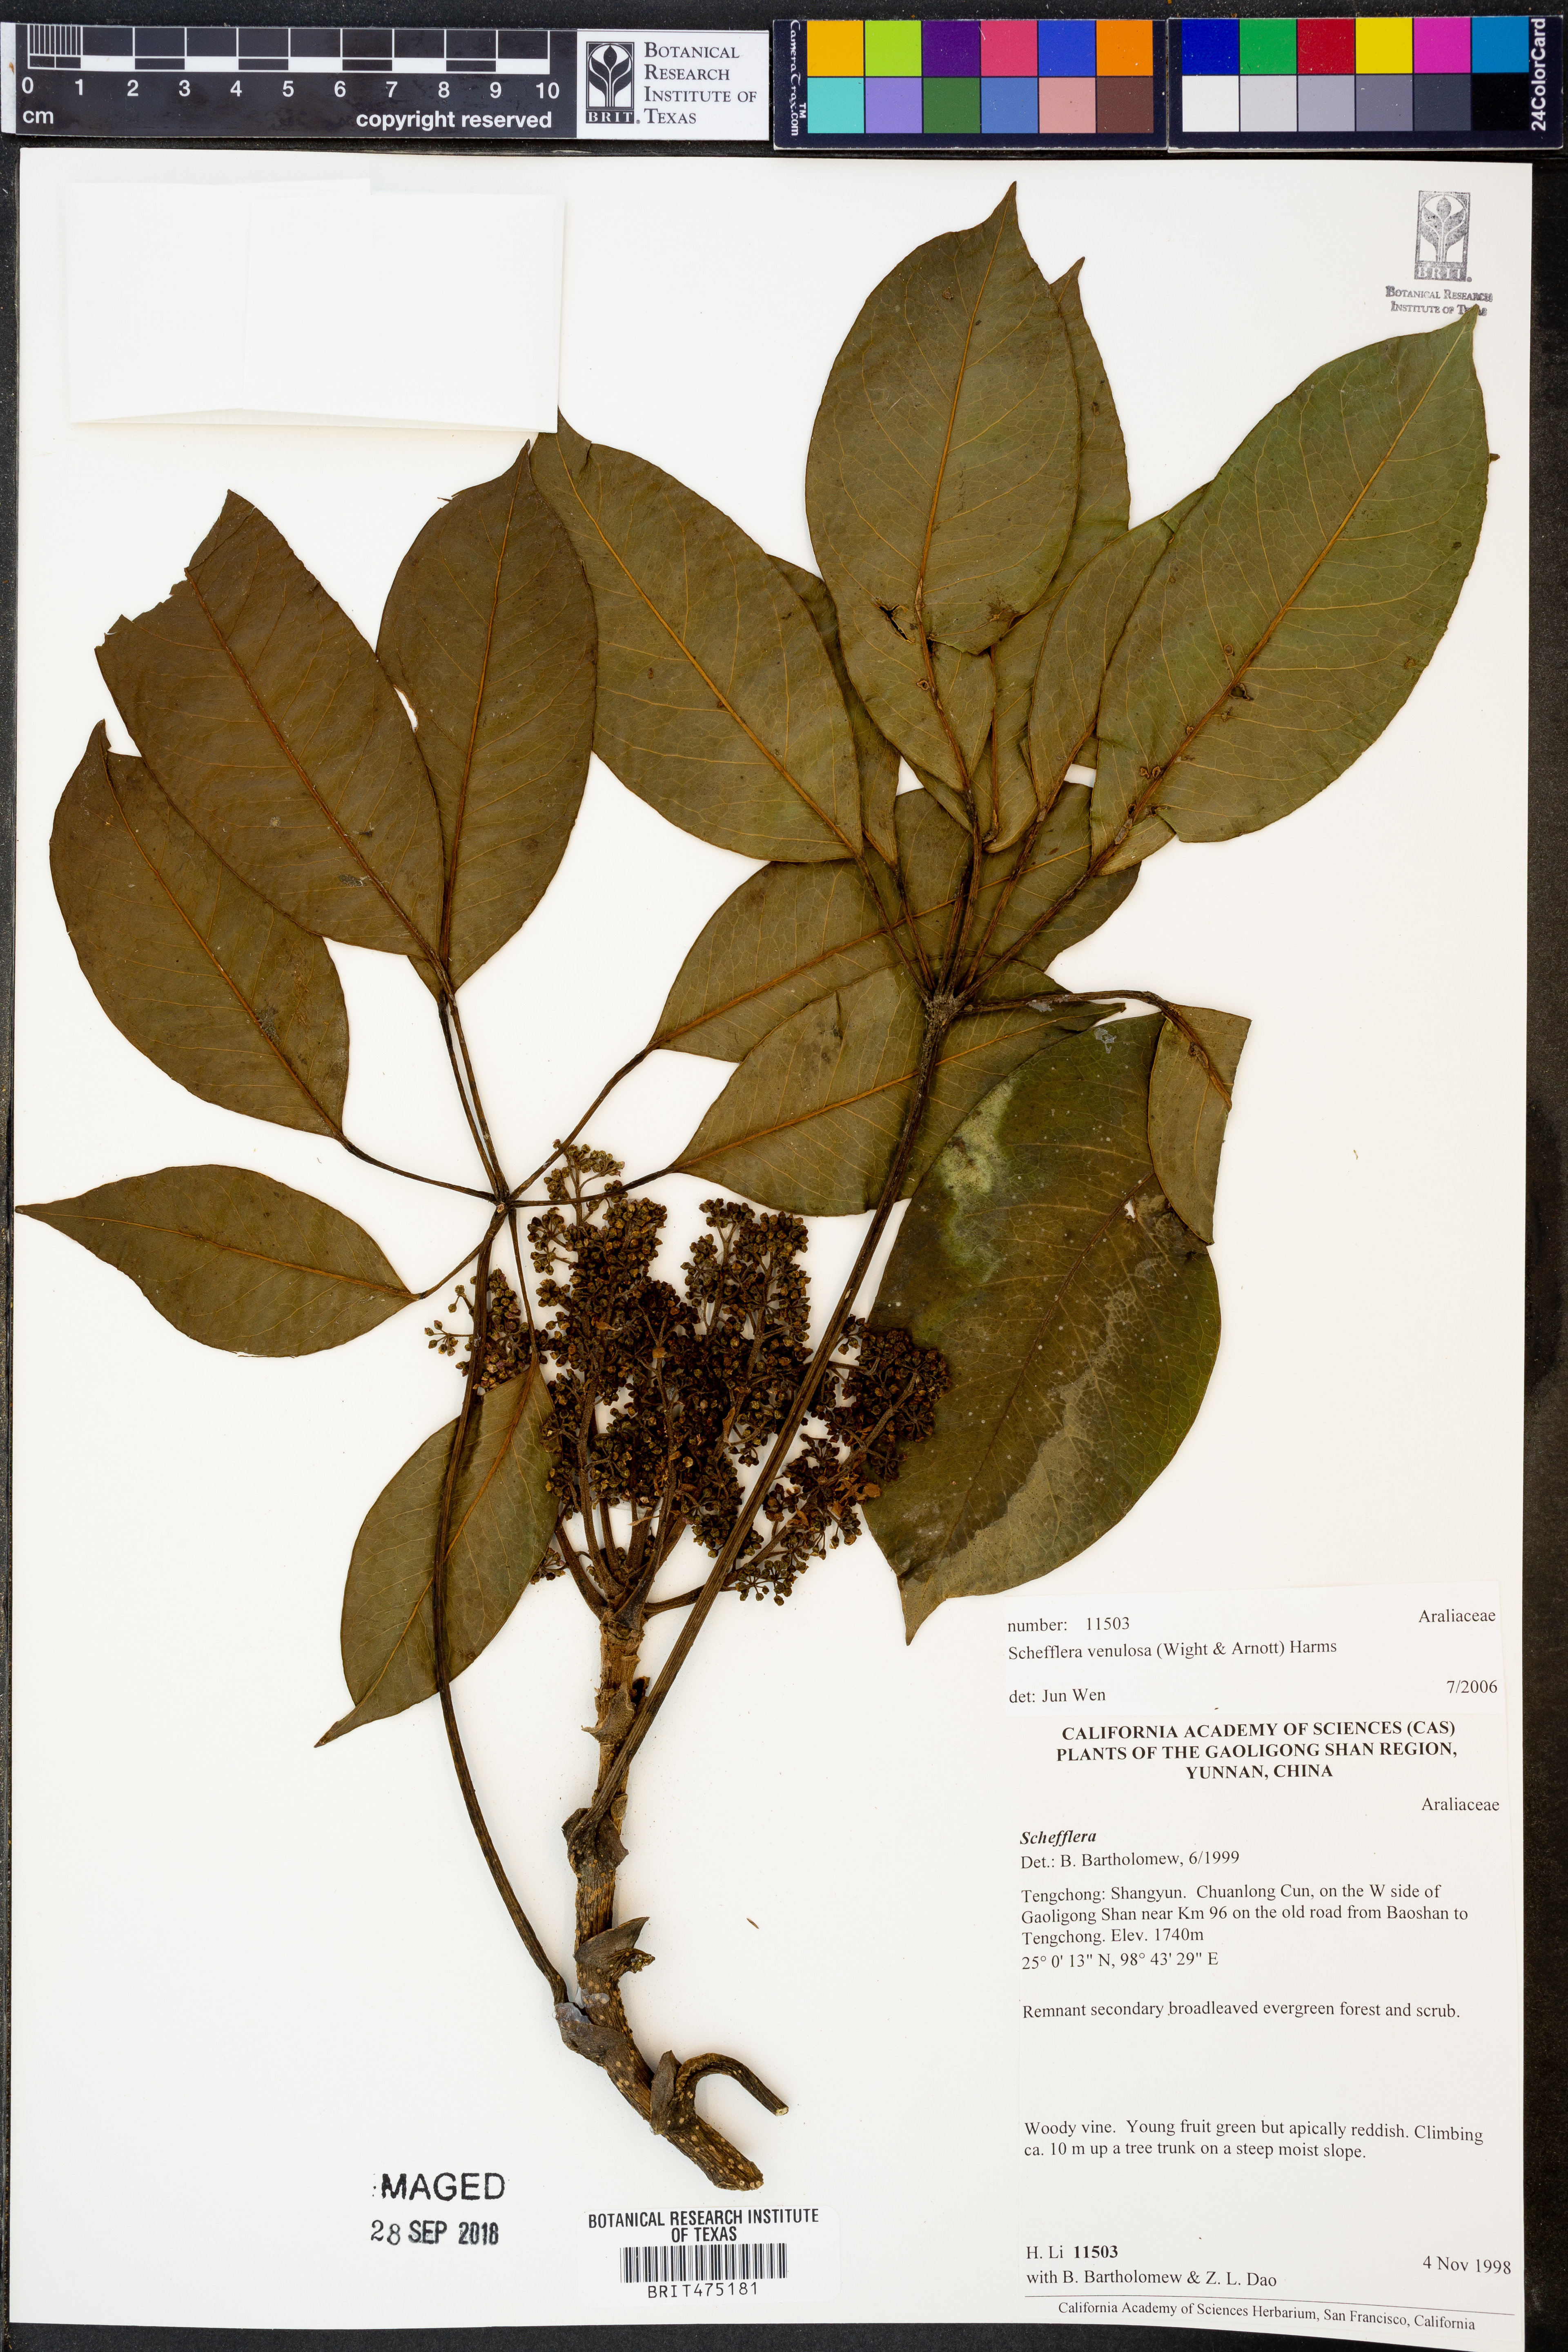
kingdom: Plantae
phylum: Tracheophyta
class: Magnoliopsida
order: Apiales
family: Araliaceae
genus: Heptapleurum
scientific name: Heptapleurum venulosum
